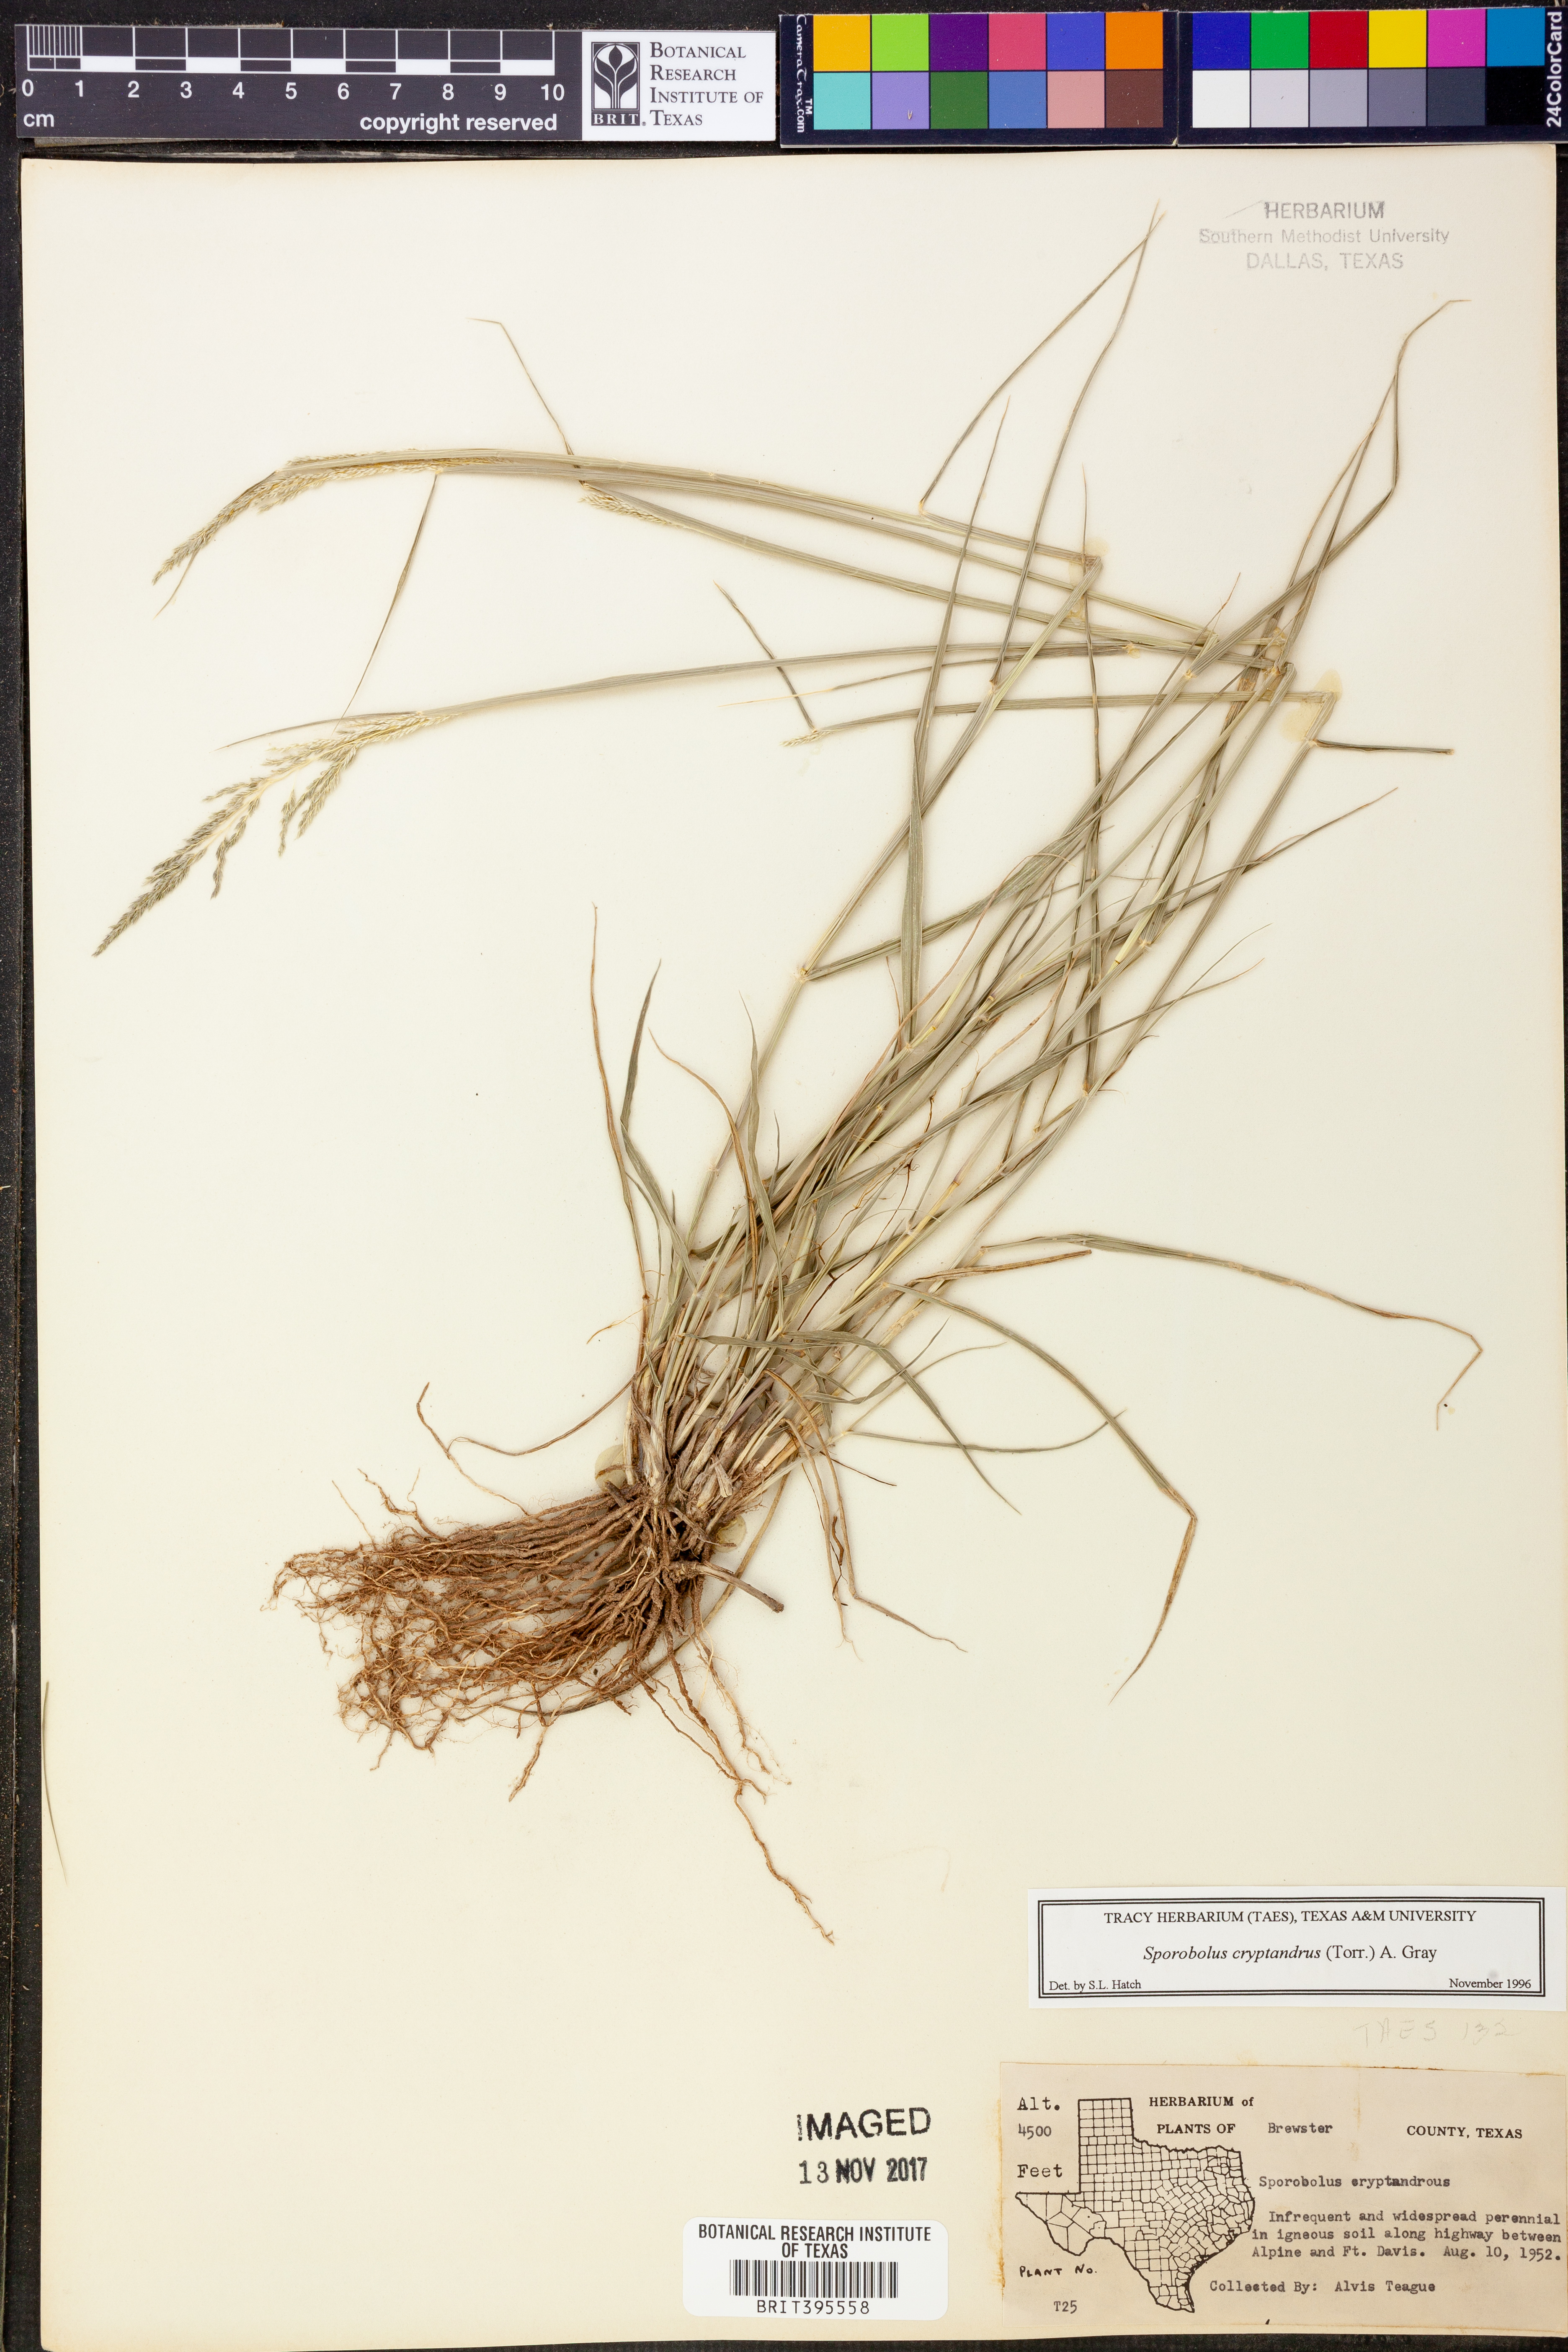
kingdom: Plantae
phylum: Tracheophyta
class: Liliopsida
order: Poales
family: Poaceae
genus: Sporobolus
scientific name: Sporobolus cryptandrus
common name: Sand dropseed
